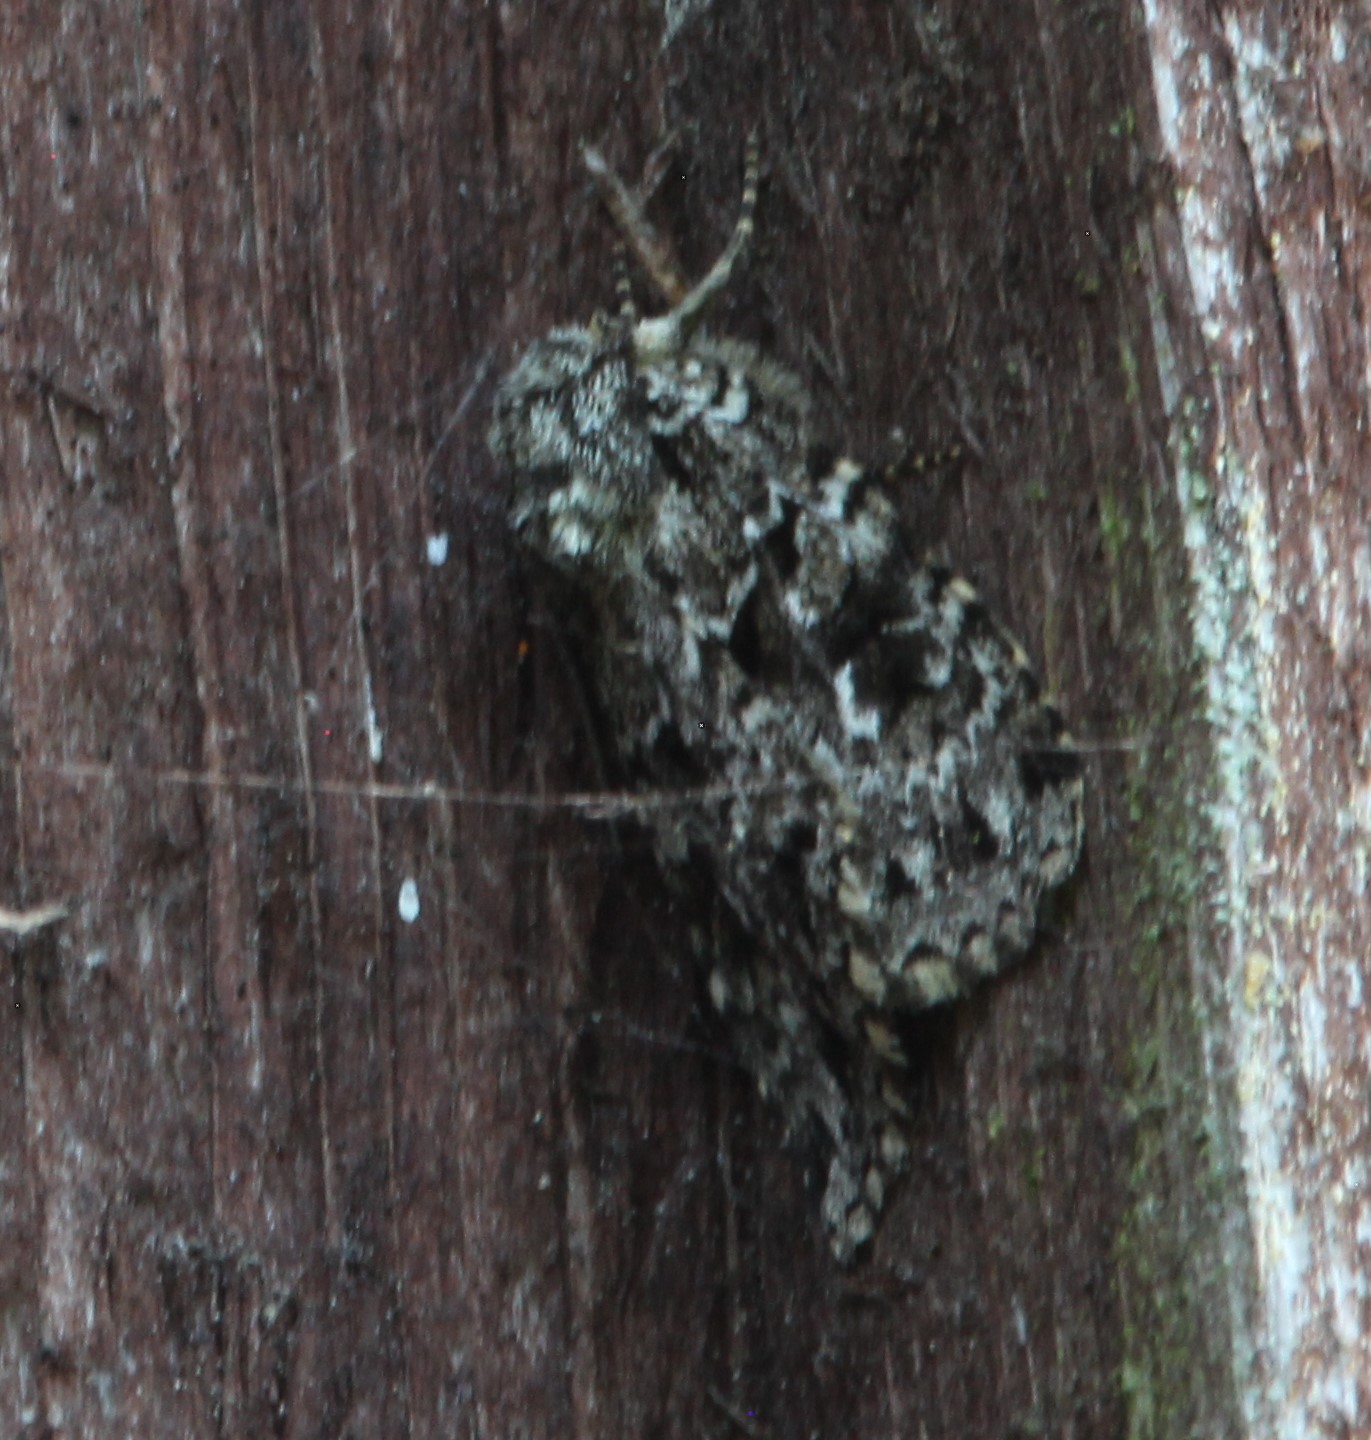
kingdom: Animalia
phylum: Arthropoda
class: Insecta
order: Lepidoptera
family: Noctuidae
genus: Xestia
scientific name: Xestia speciosa
